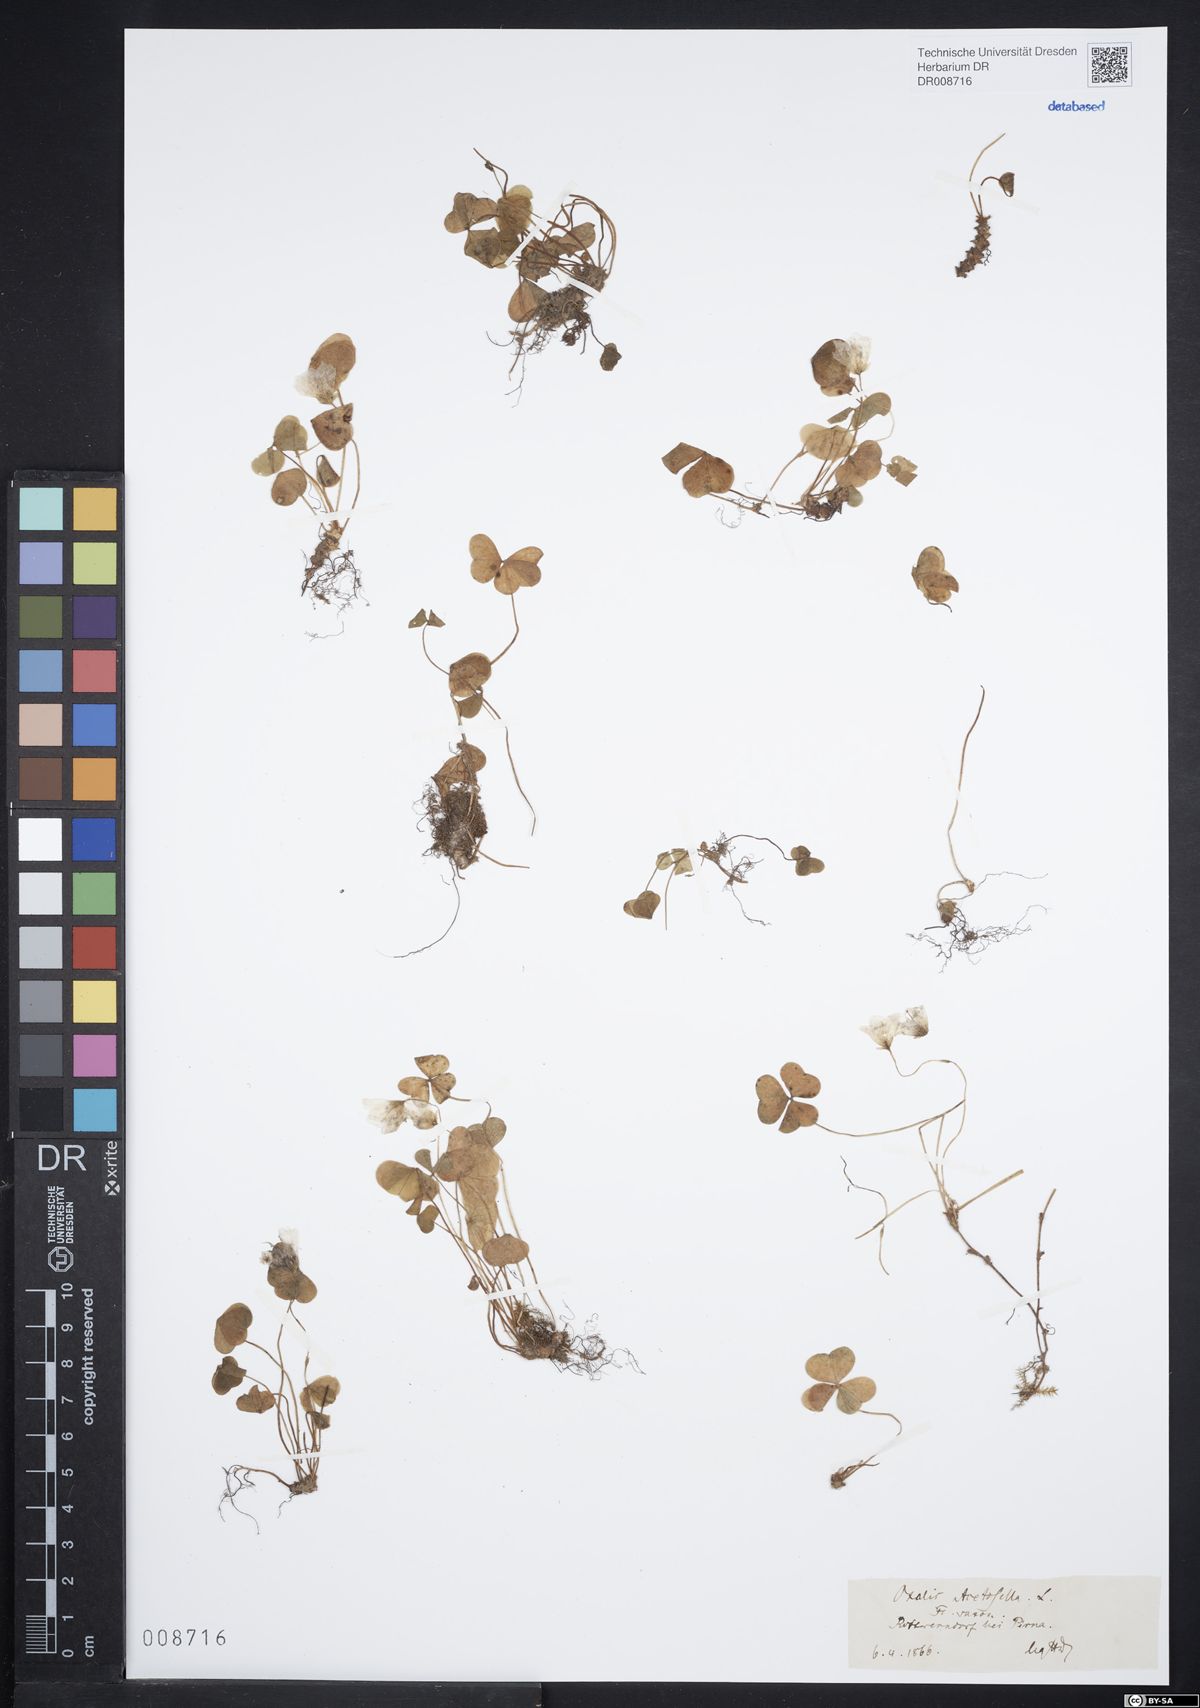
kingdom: Plantae
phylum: Tracheophyta
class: Magnoliopsida
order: Oxalidales
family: Oxalidaceae
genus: Oxalis
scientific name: Oxalis acetosella
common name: Wood-sorrel
